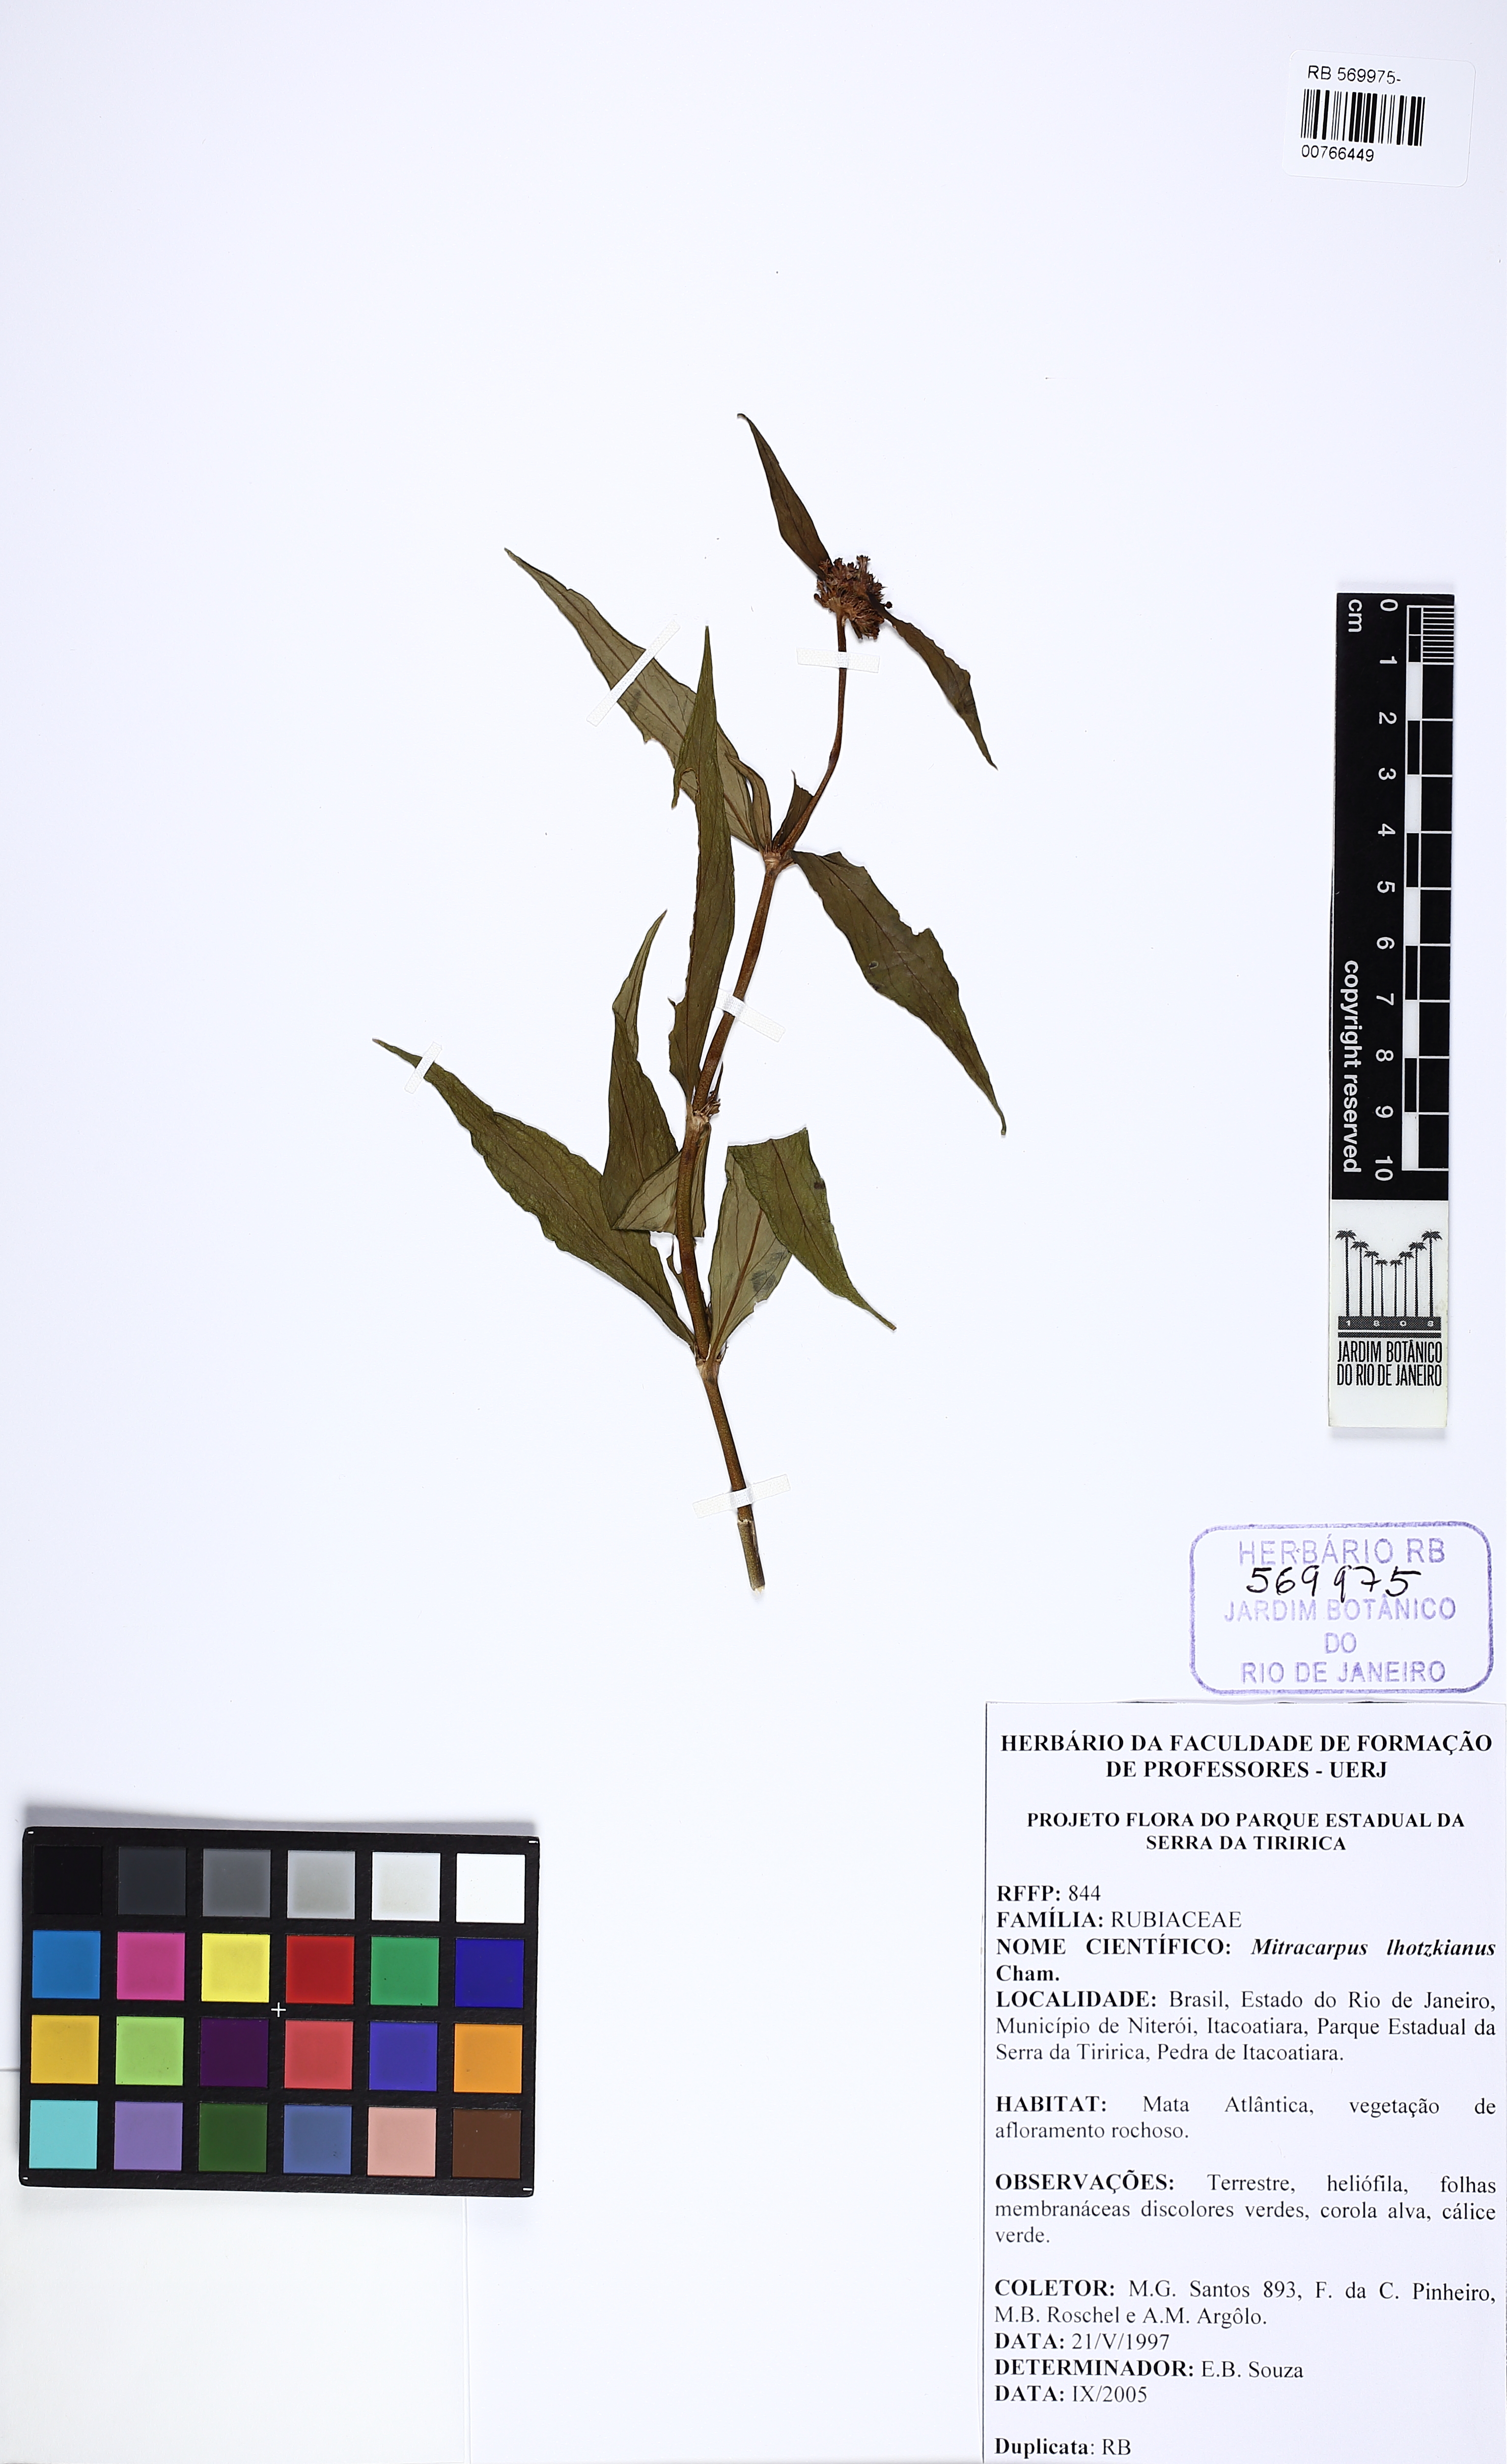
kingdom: Plantae
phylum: Tracheophyta
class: Magnoliopsida
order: Gentianales
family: Rubiaceae
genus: Mitracarpus
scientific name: Mitracarpus lhotzkyanus
